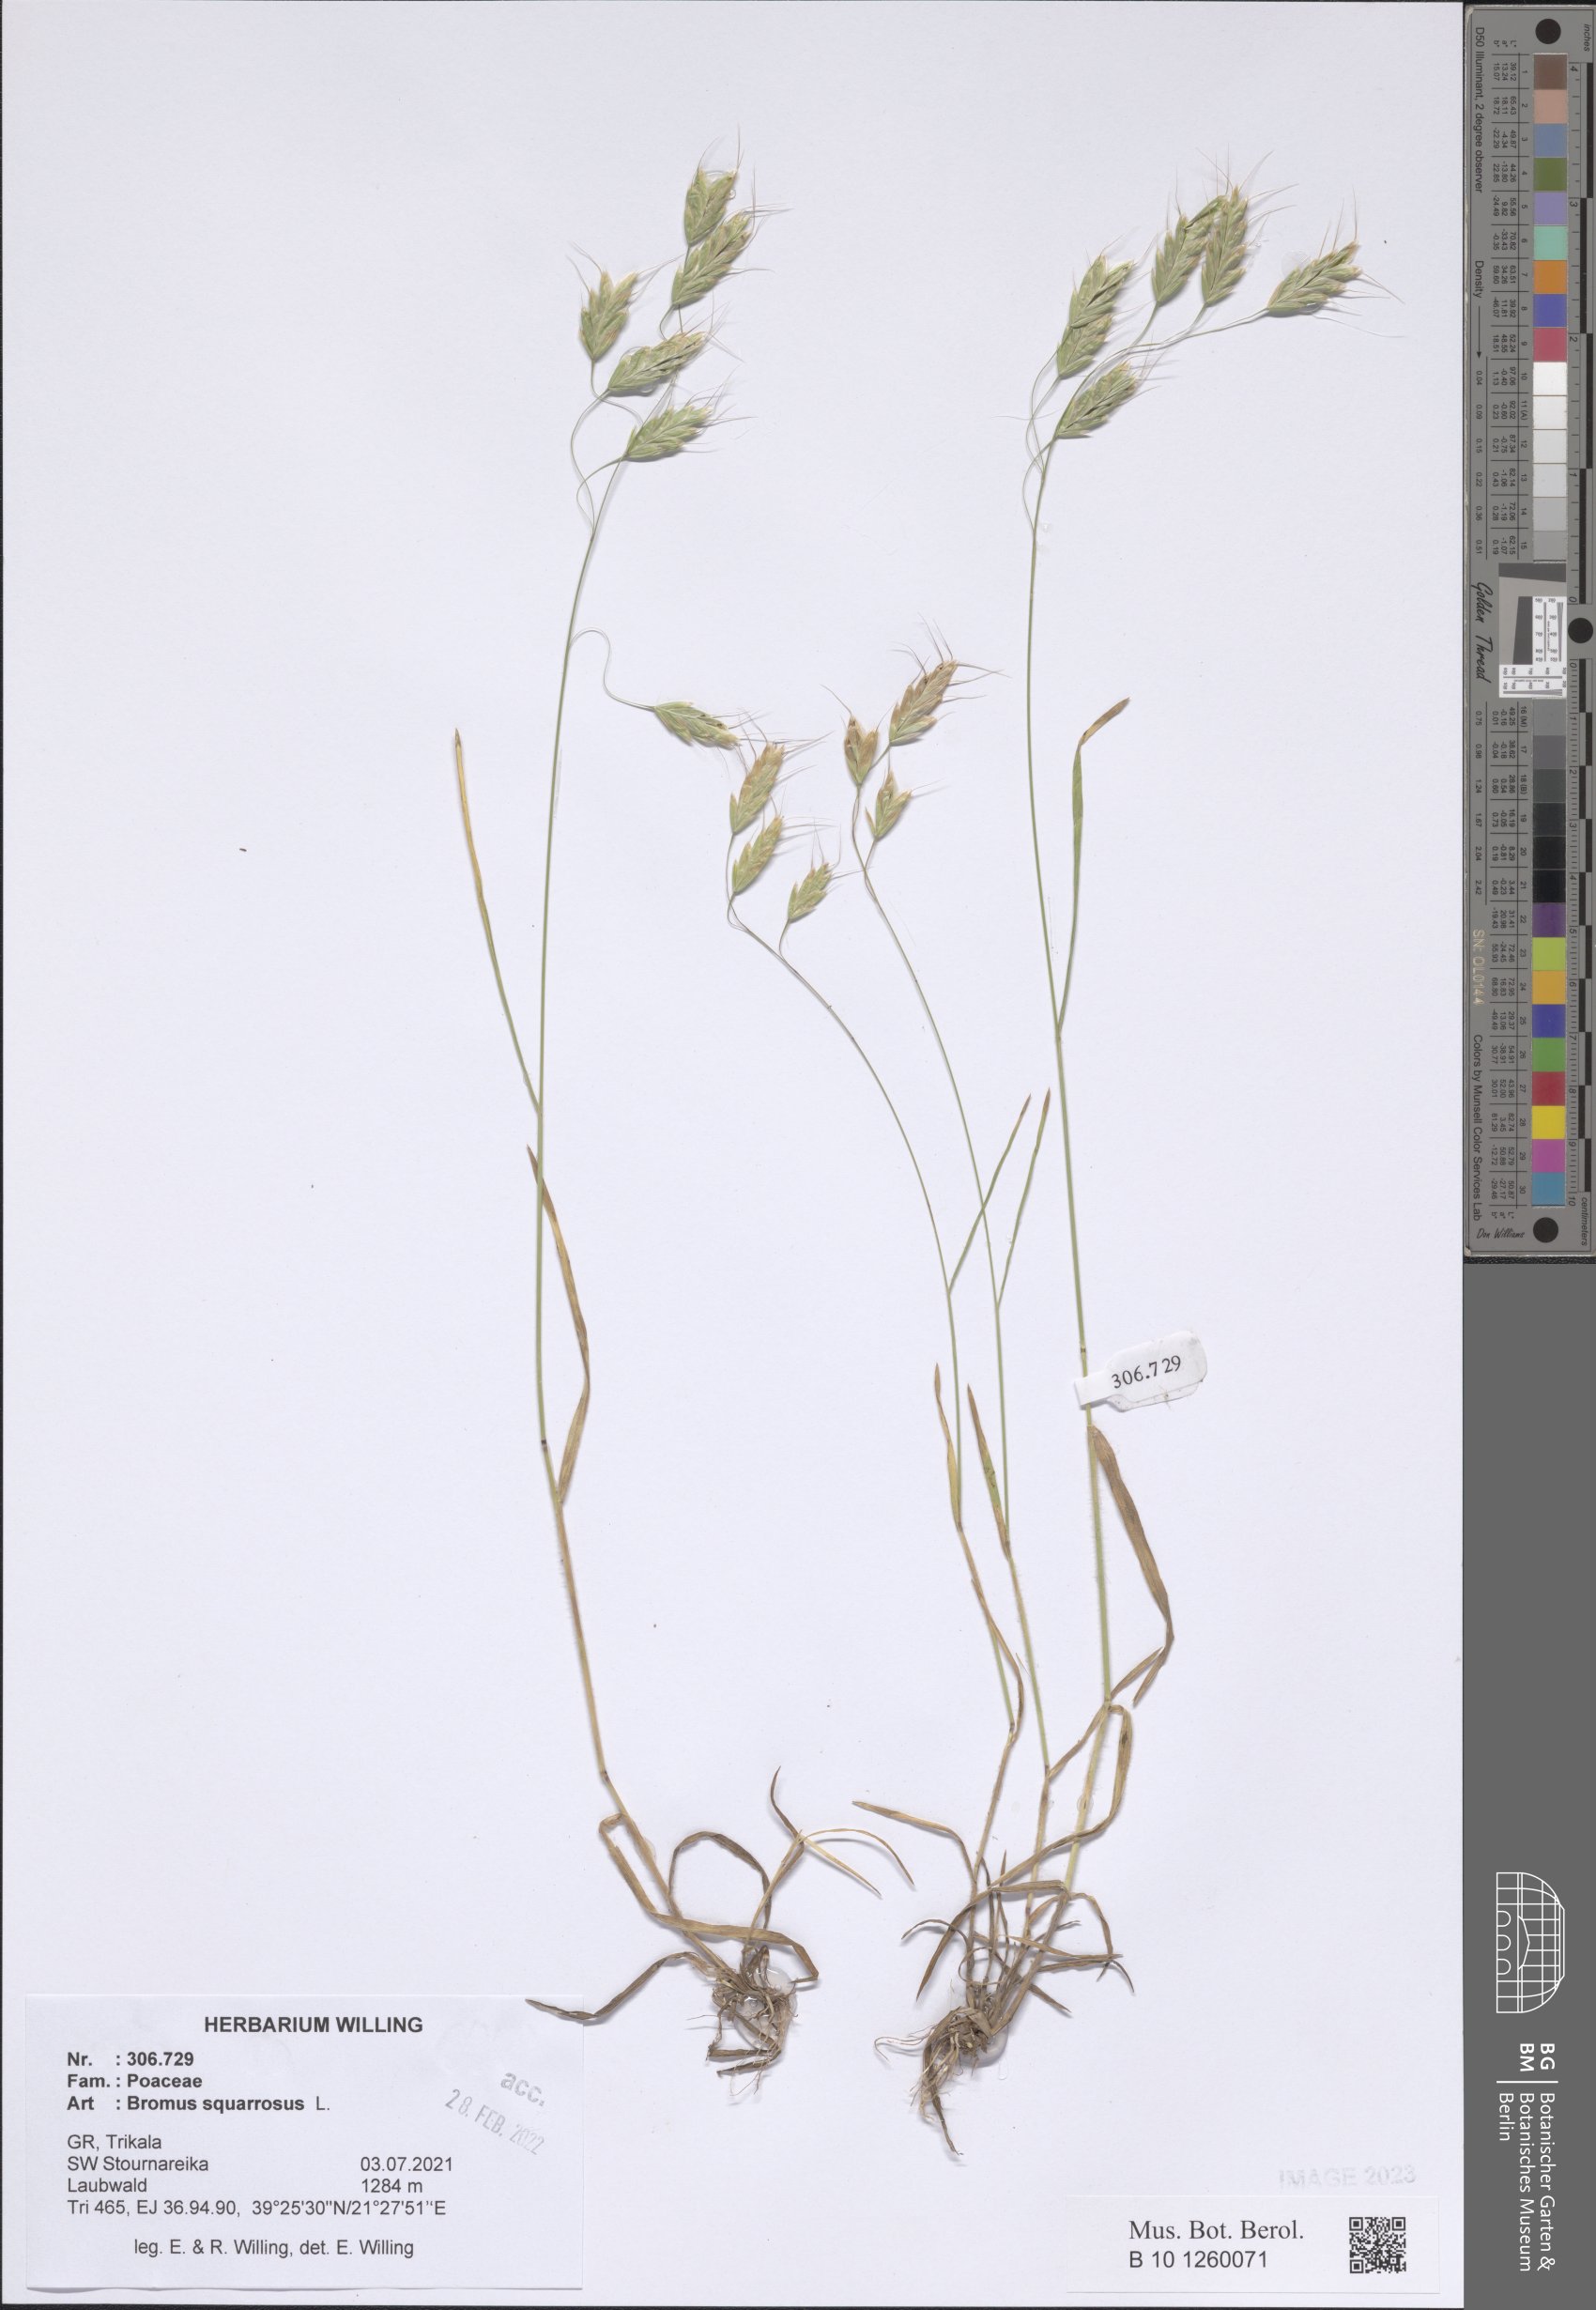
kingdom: Plantae
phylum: Tracheophyta
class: Liliopsida
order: Poales
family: Poaceae
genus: Bromus
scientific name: Bromus squarrosus
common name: Corn brome
